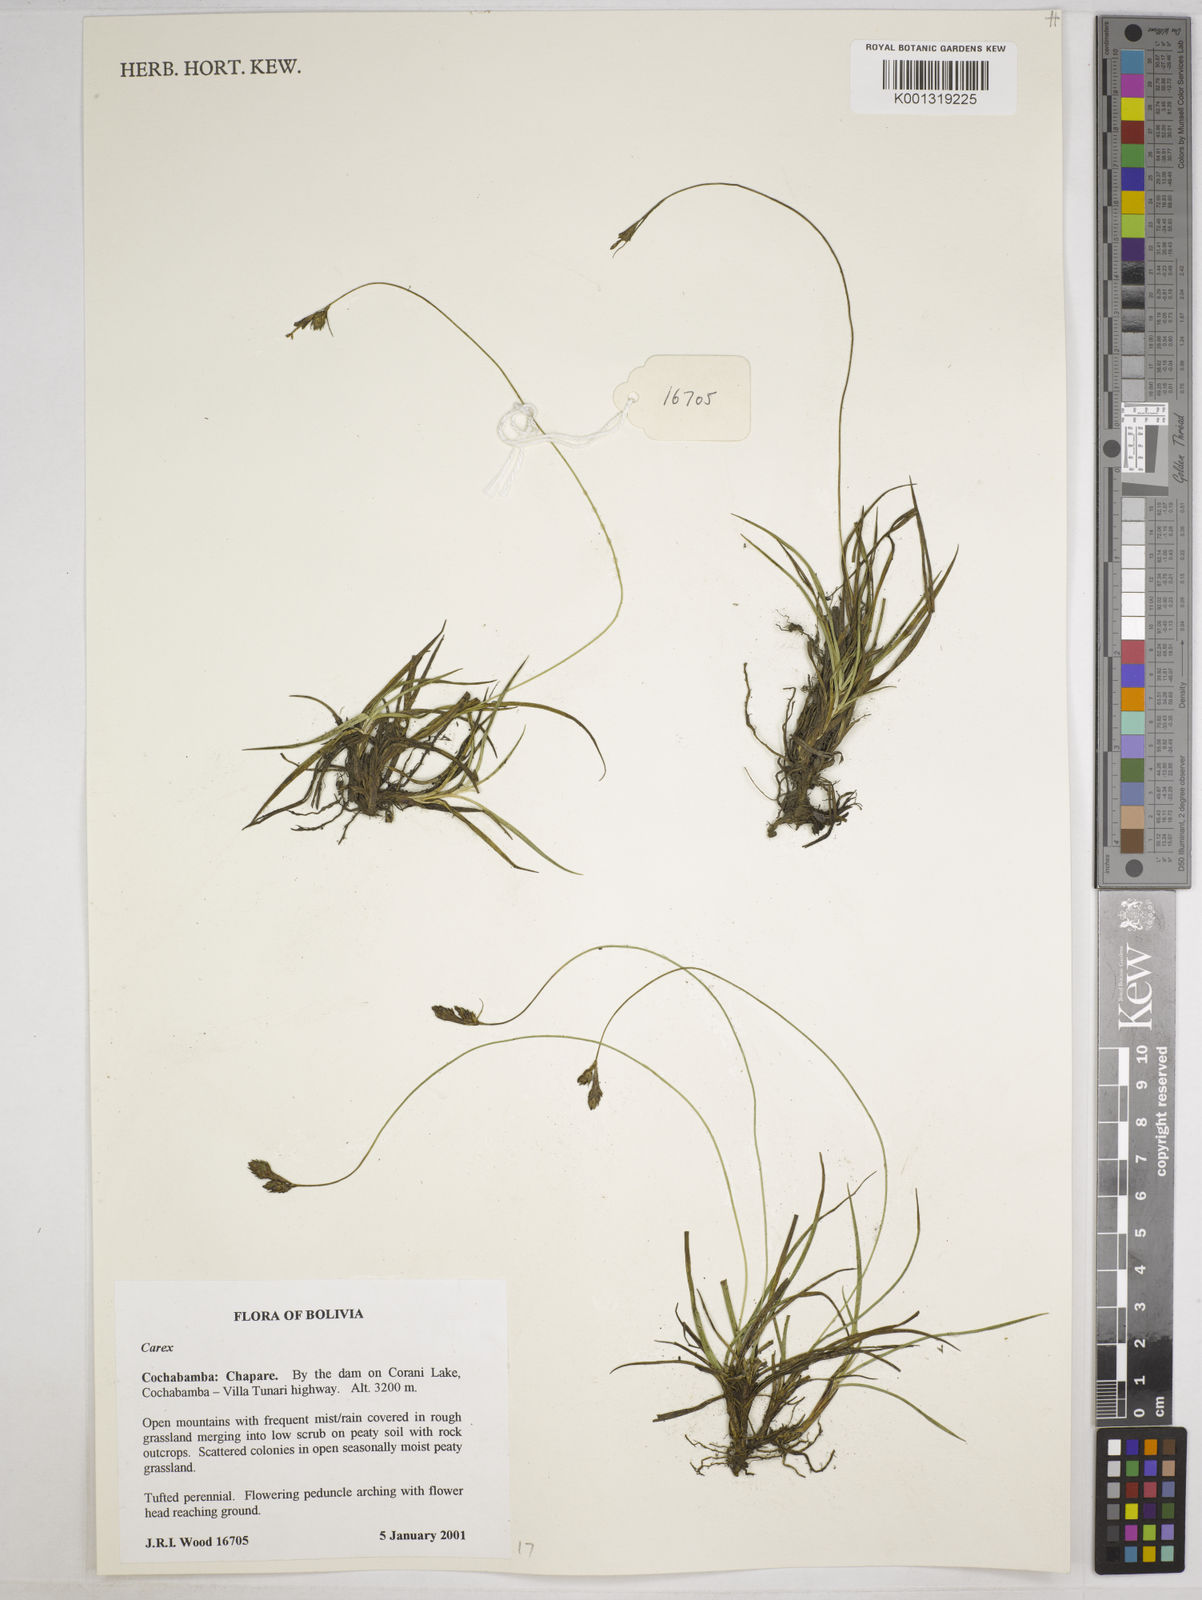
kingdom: Plantae
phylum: Tracheophyta
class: Liliopsida
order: Poales
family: Cyperaceae
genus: Carex
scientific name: Carex boliviensis
